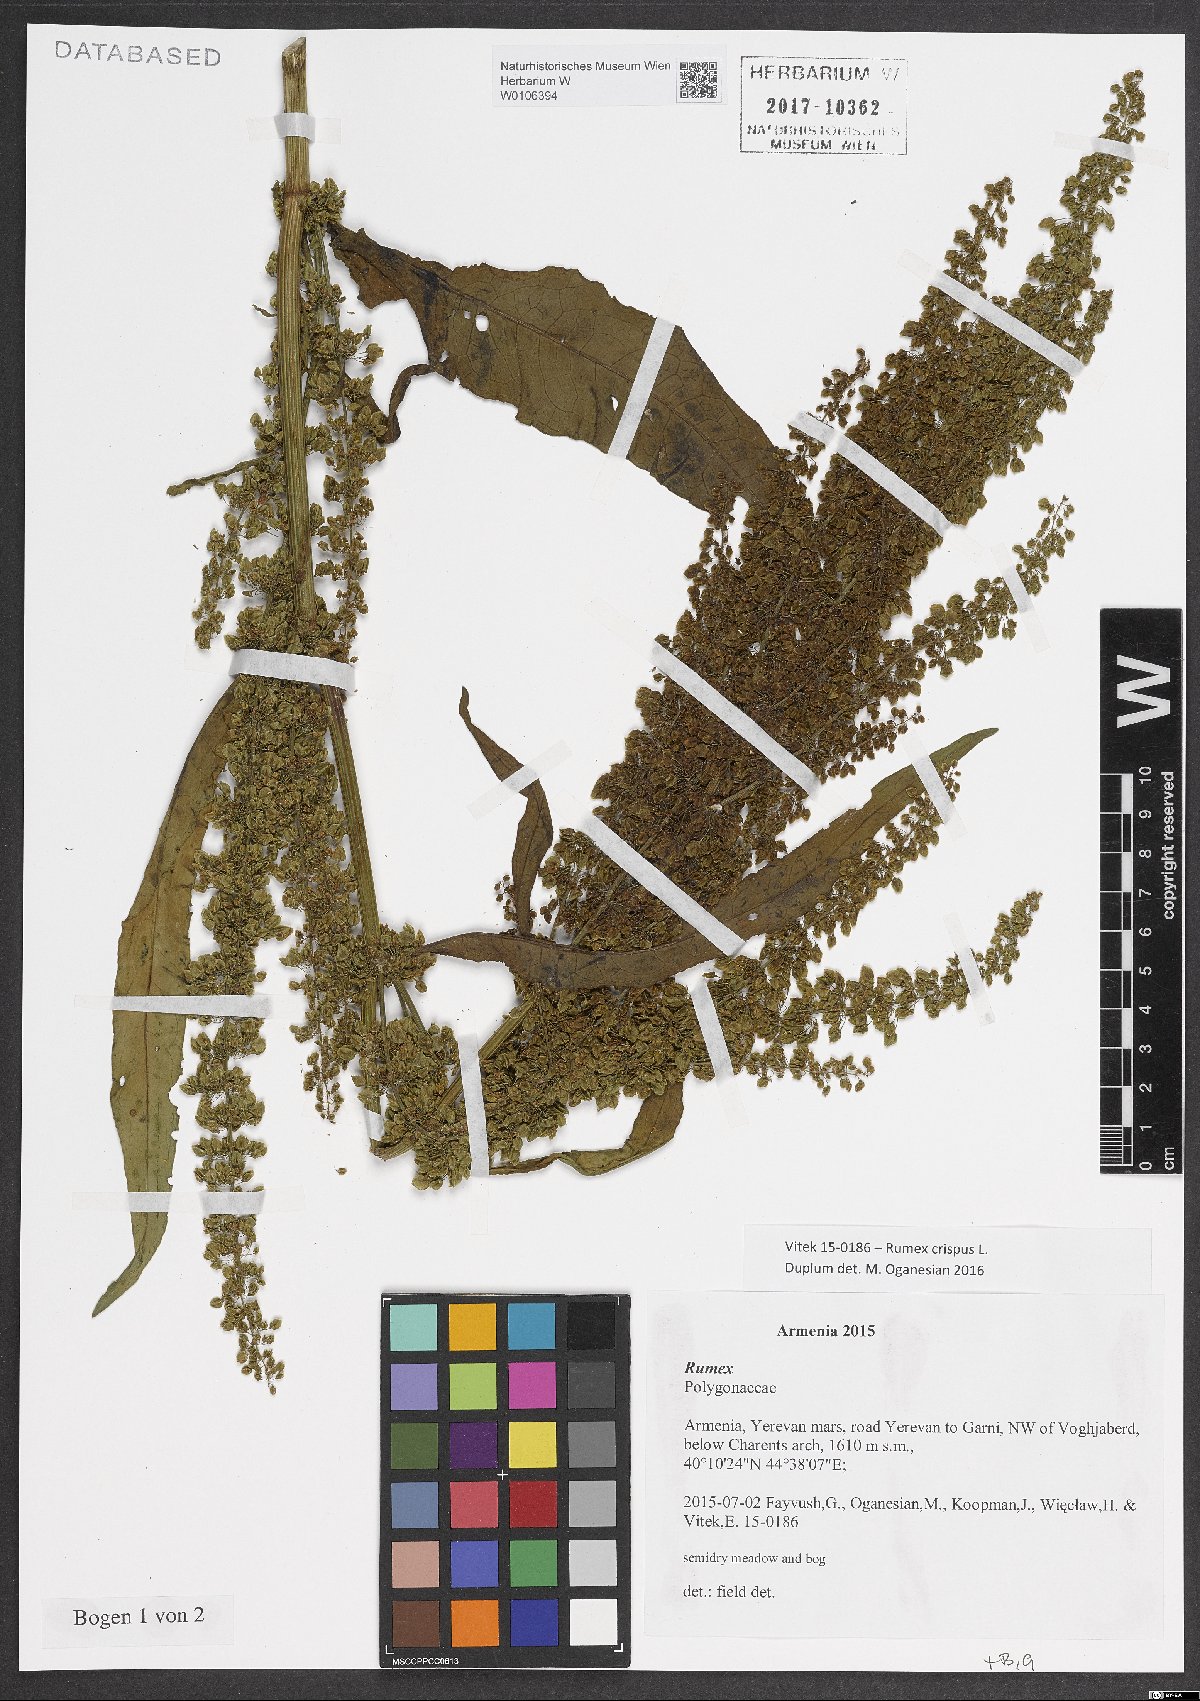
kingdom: Plantae
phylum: Tracheophyta
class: Magnoliopsida
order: Caryophyllales
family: Polygonaceae
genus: Rumex
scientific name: Rumex crispus
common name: Curled dock
